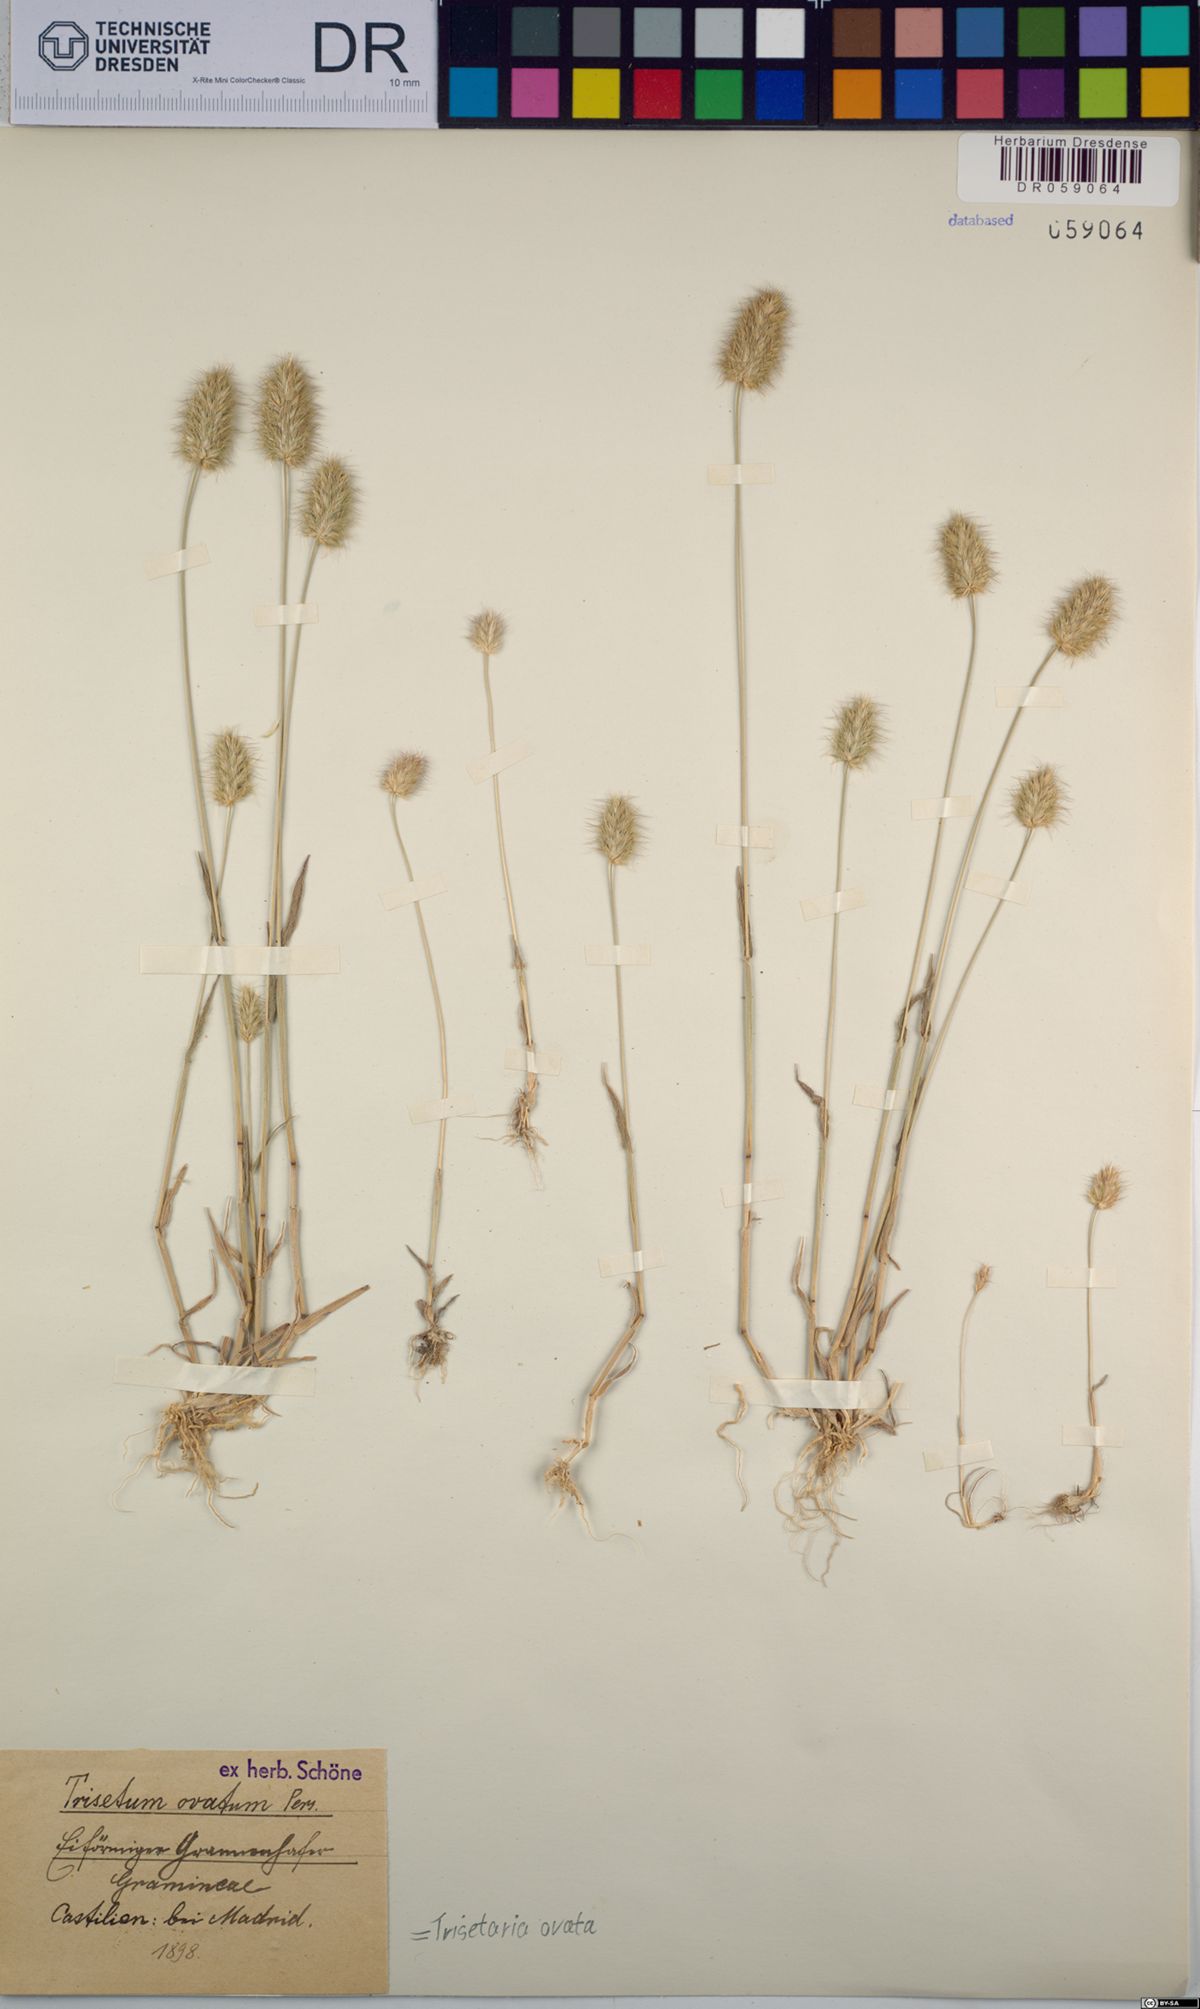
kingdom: Plantae
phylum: Tracheophyta
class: Liliopsida
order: Poales
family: Poaceae
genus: Trisetaria
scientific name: Trisetaria ovata
